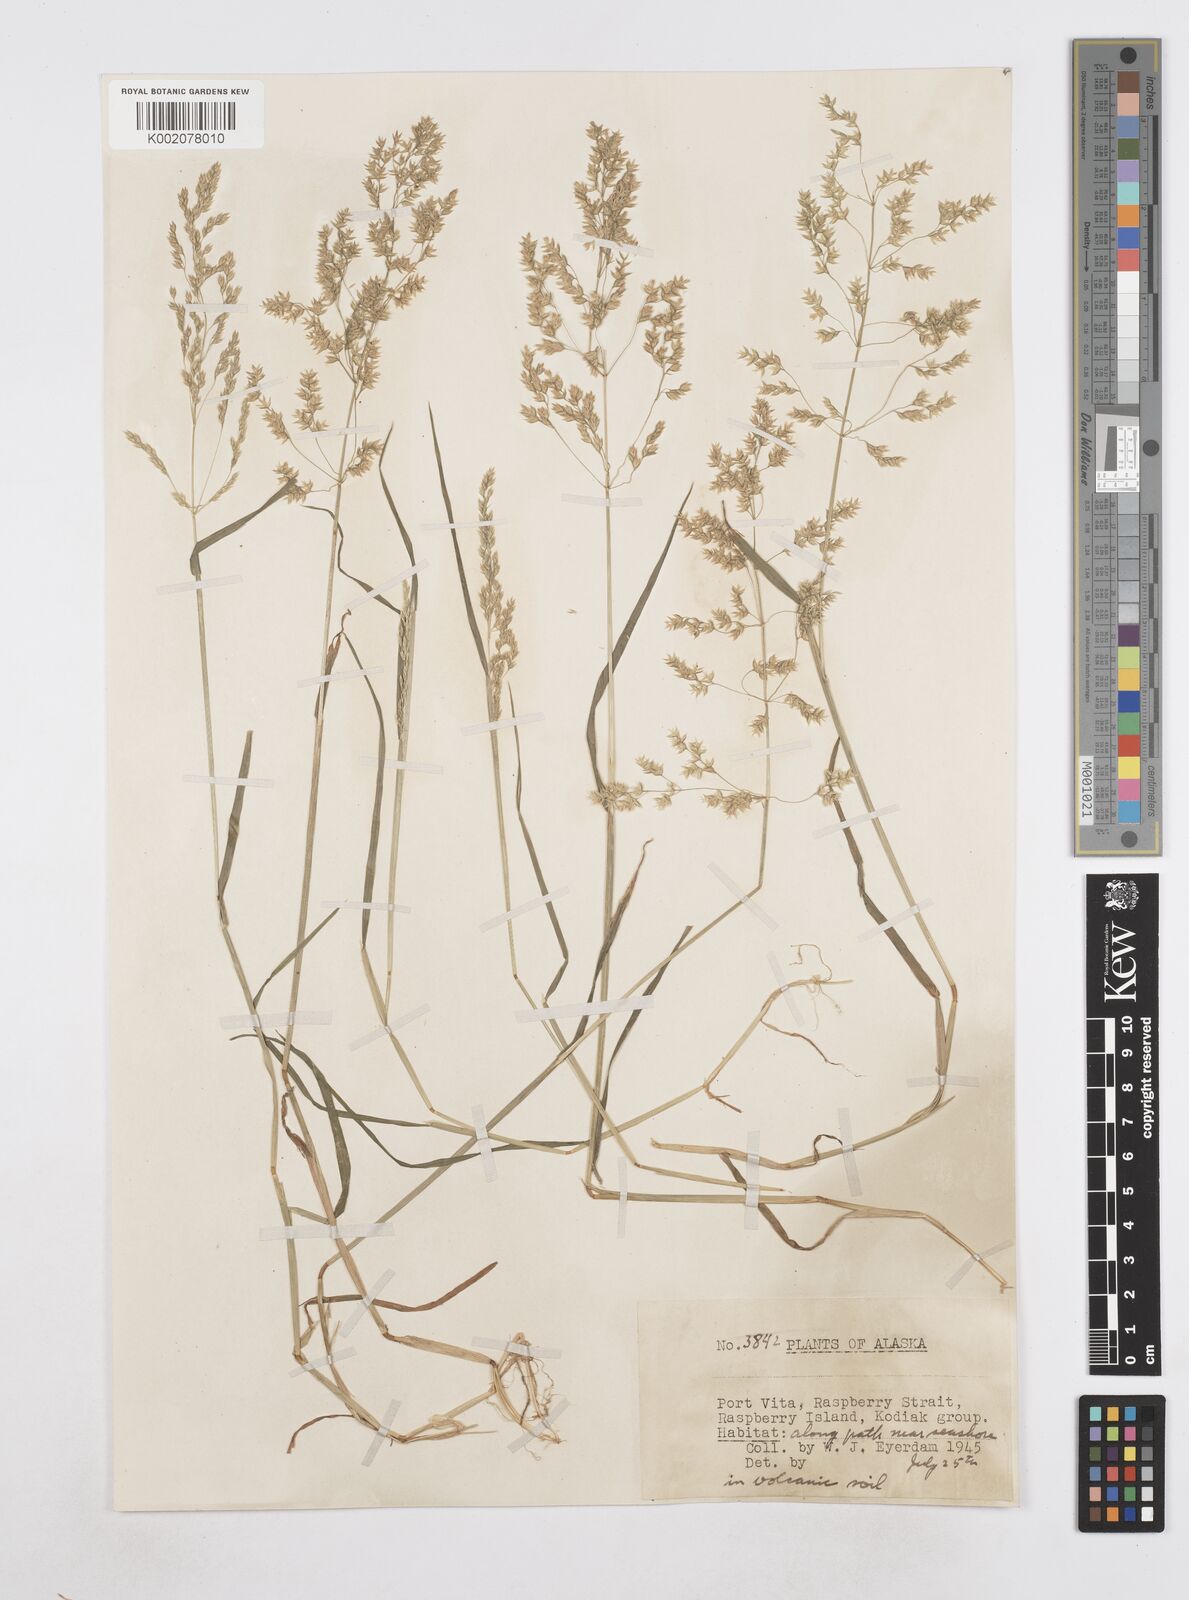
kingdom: Plantae
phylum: Tracheophyta
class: Liliopsida
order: Poales
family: Poaceae
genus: Poa
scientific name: Poa
